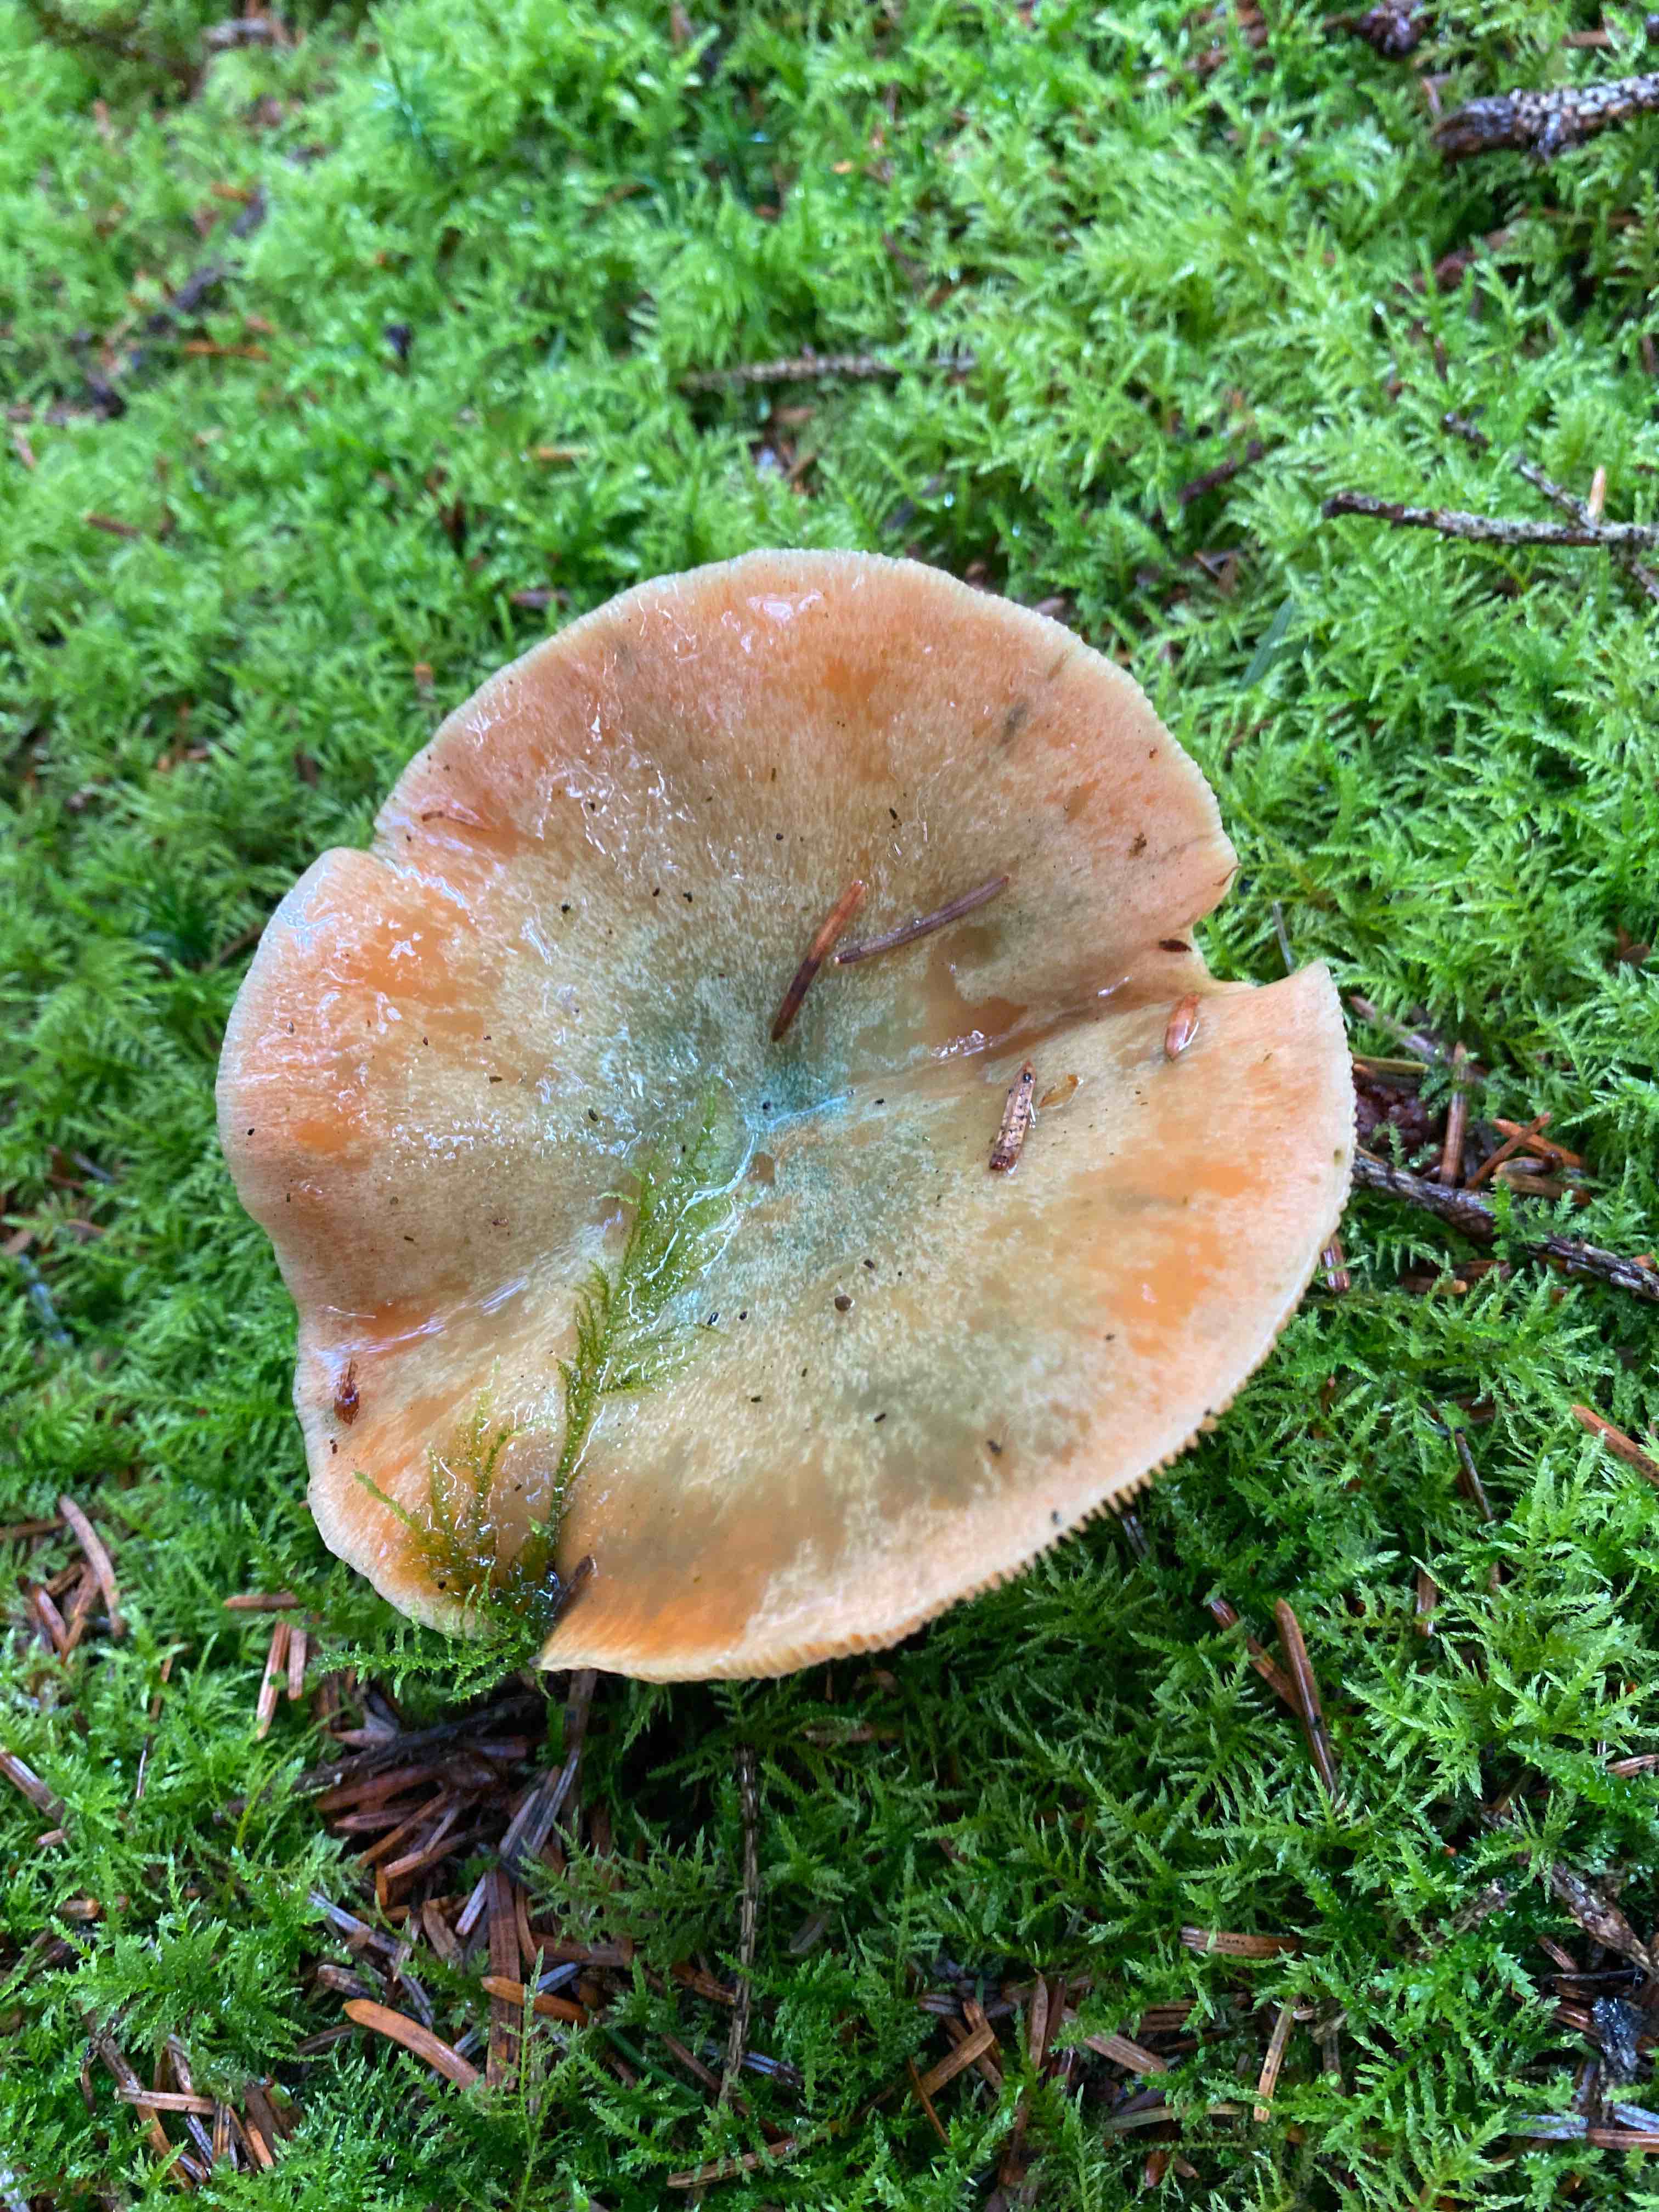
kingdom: Fungi
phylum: Basidiomycota
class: Agaricomycetes
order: Russulales
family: Russulaceae
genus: Lactarius
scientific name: Lactarius deterrimus
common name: gran-mælkehat
